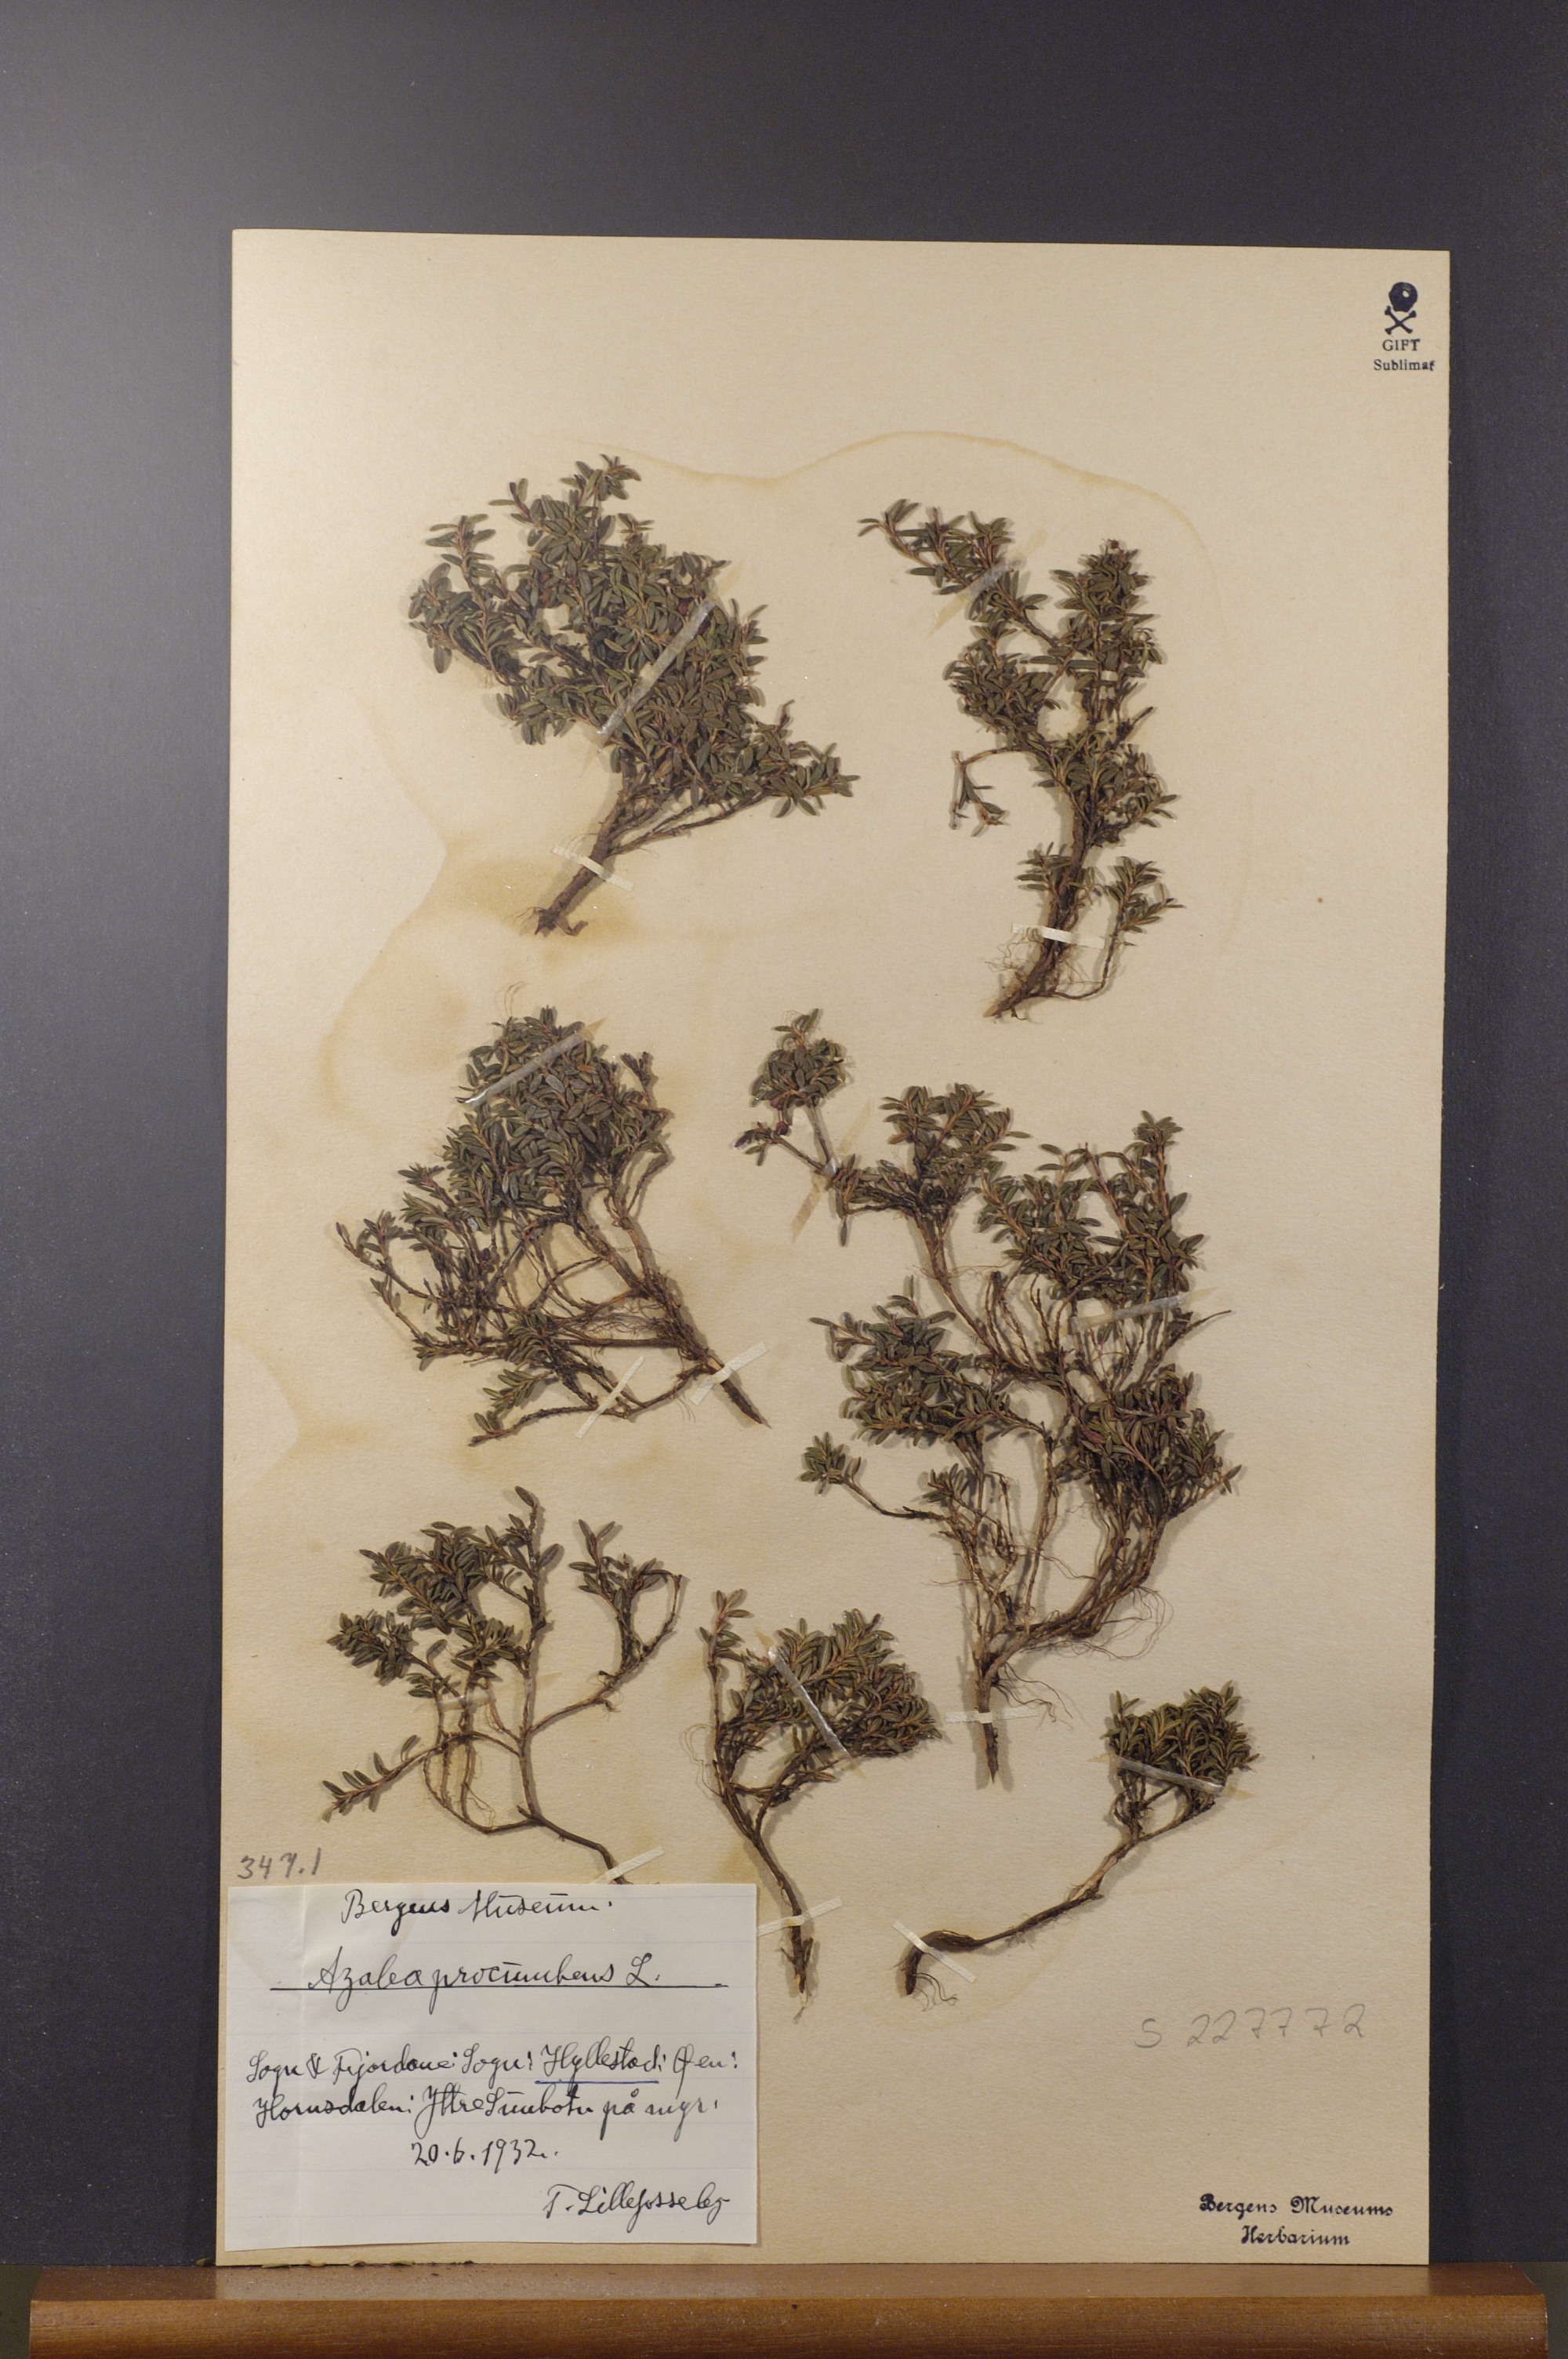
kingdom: Plantae
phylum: Tracheophyta
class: Magnoliopsida
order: Ericales
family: Ericaceae
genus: Kalmia
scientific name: Kalmia procumbens
